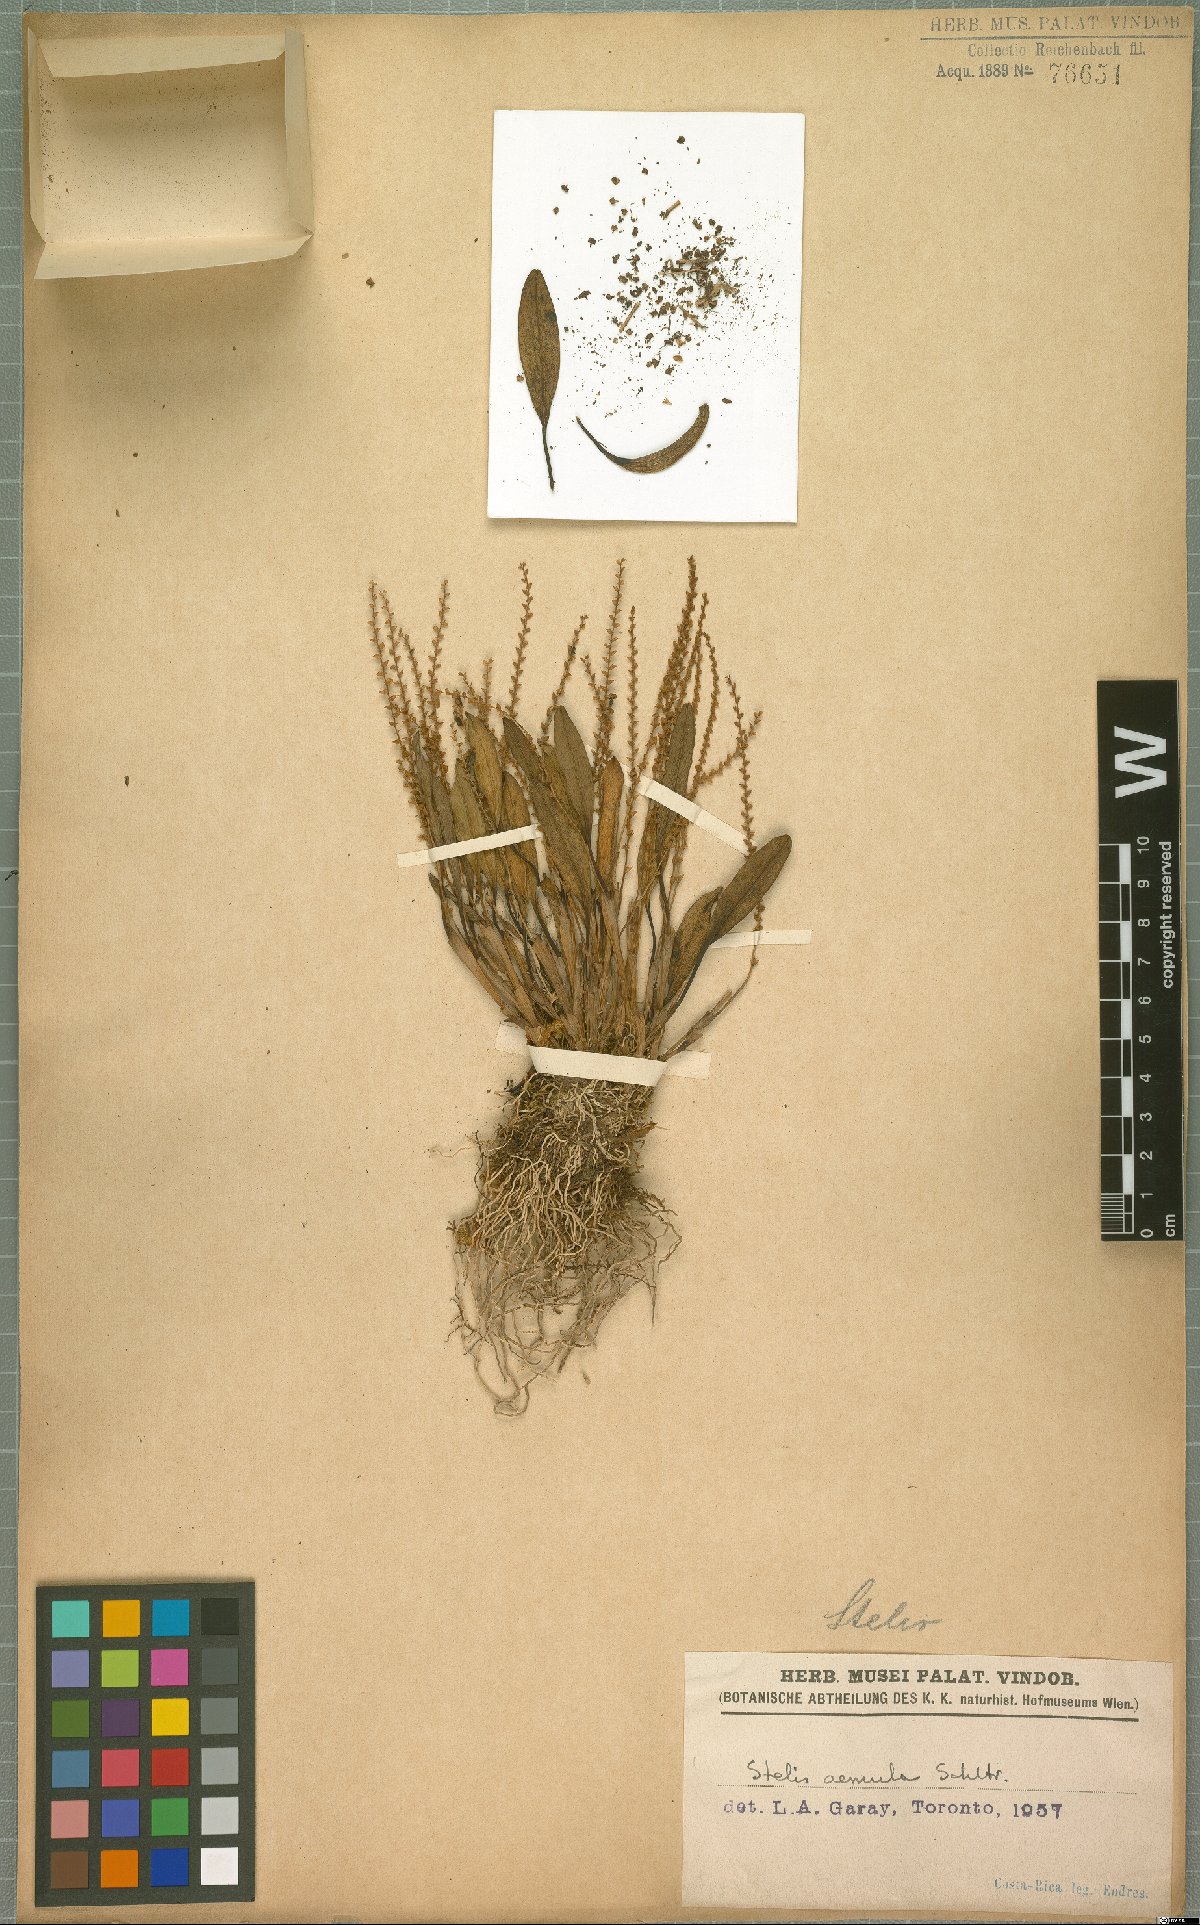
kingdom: Plantae
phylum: Tracheophyta
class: Liliopsida
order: Asparagales
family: Orchidaceae
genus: Stelis
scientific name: Stelis aemula
